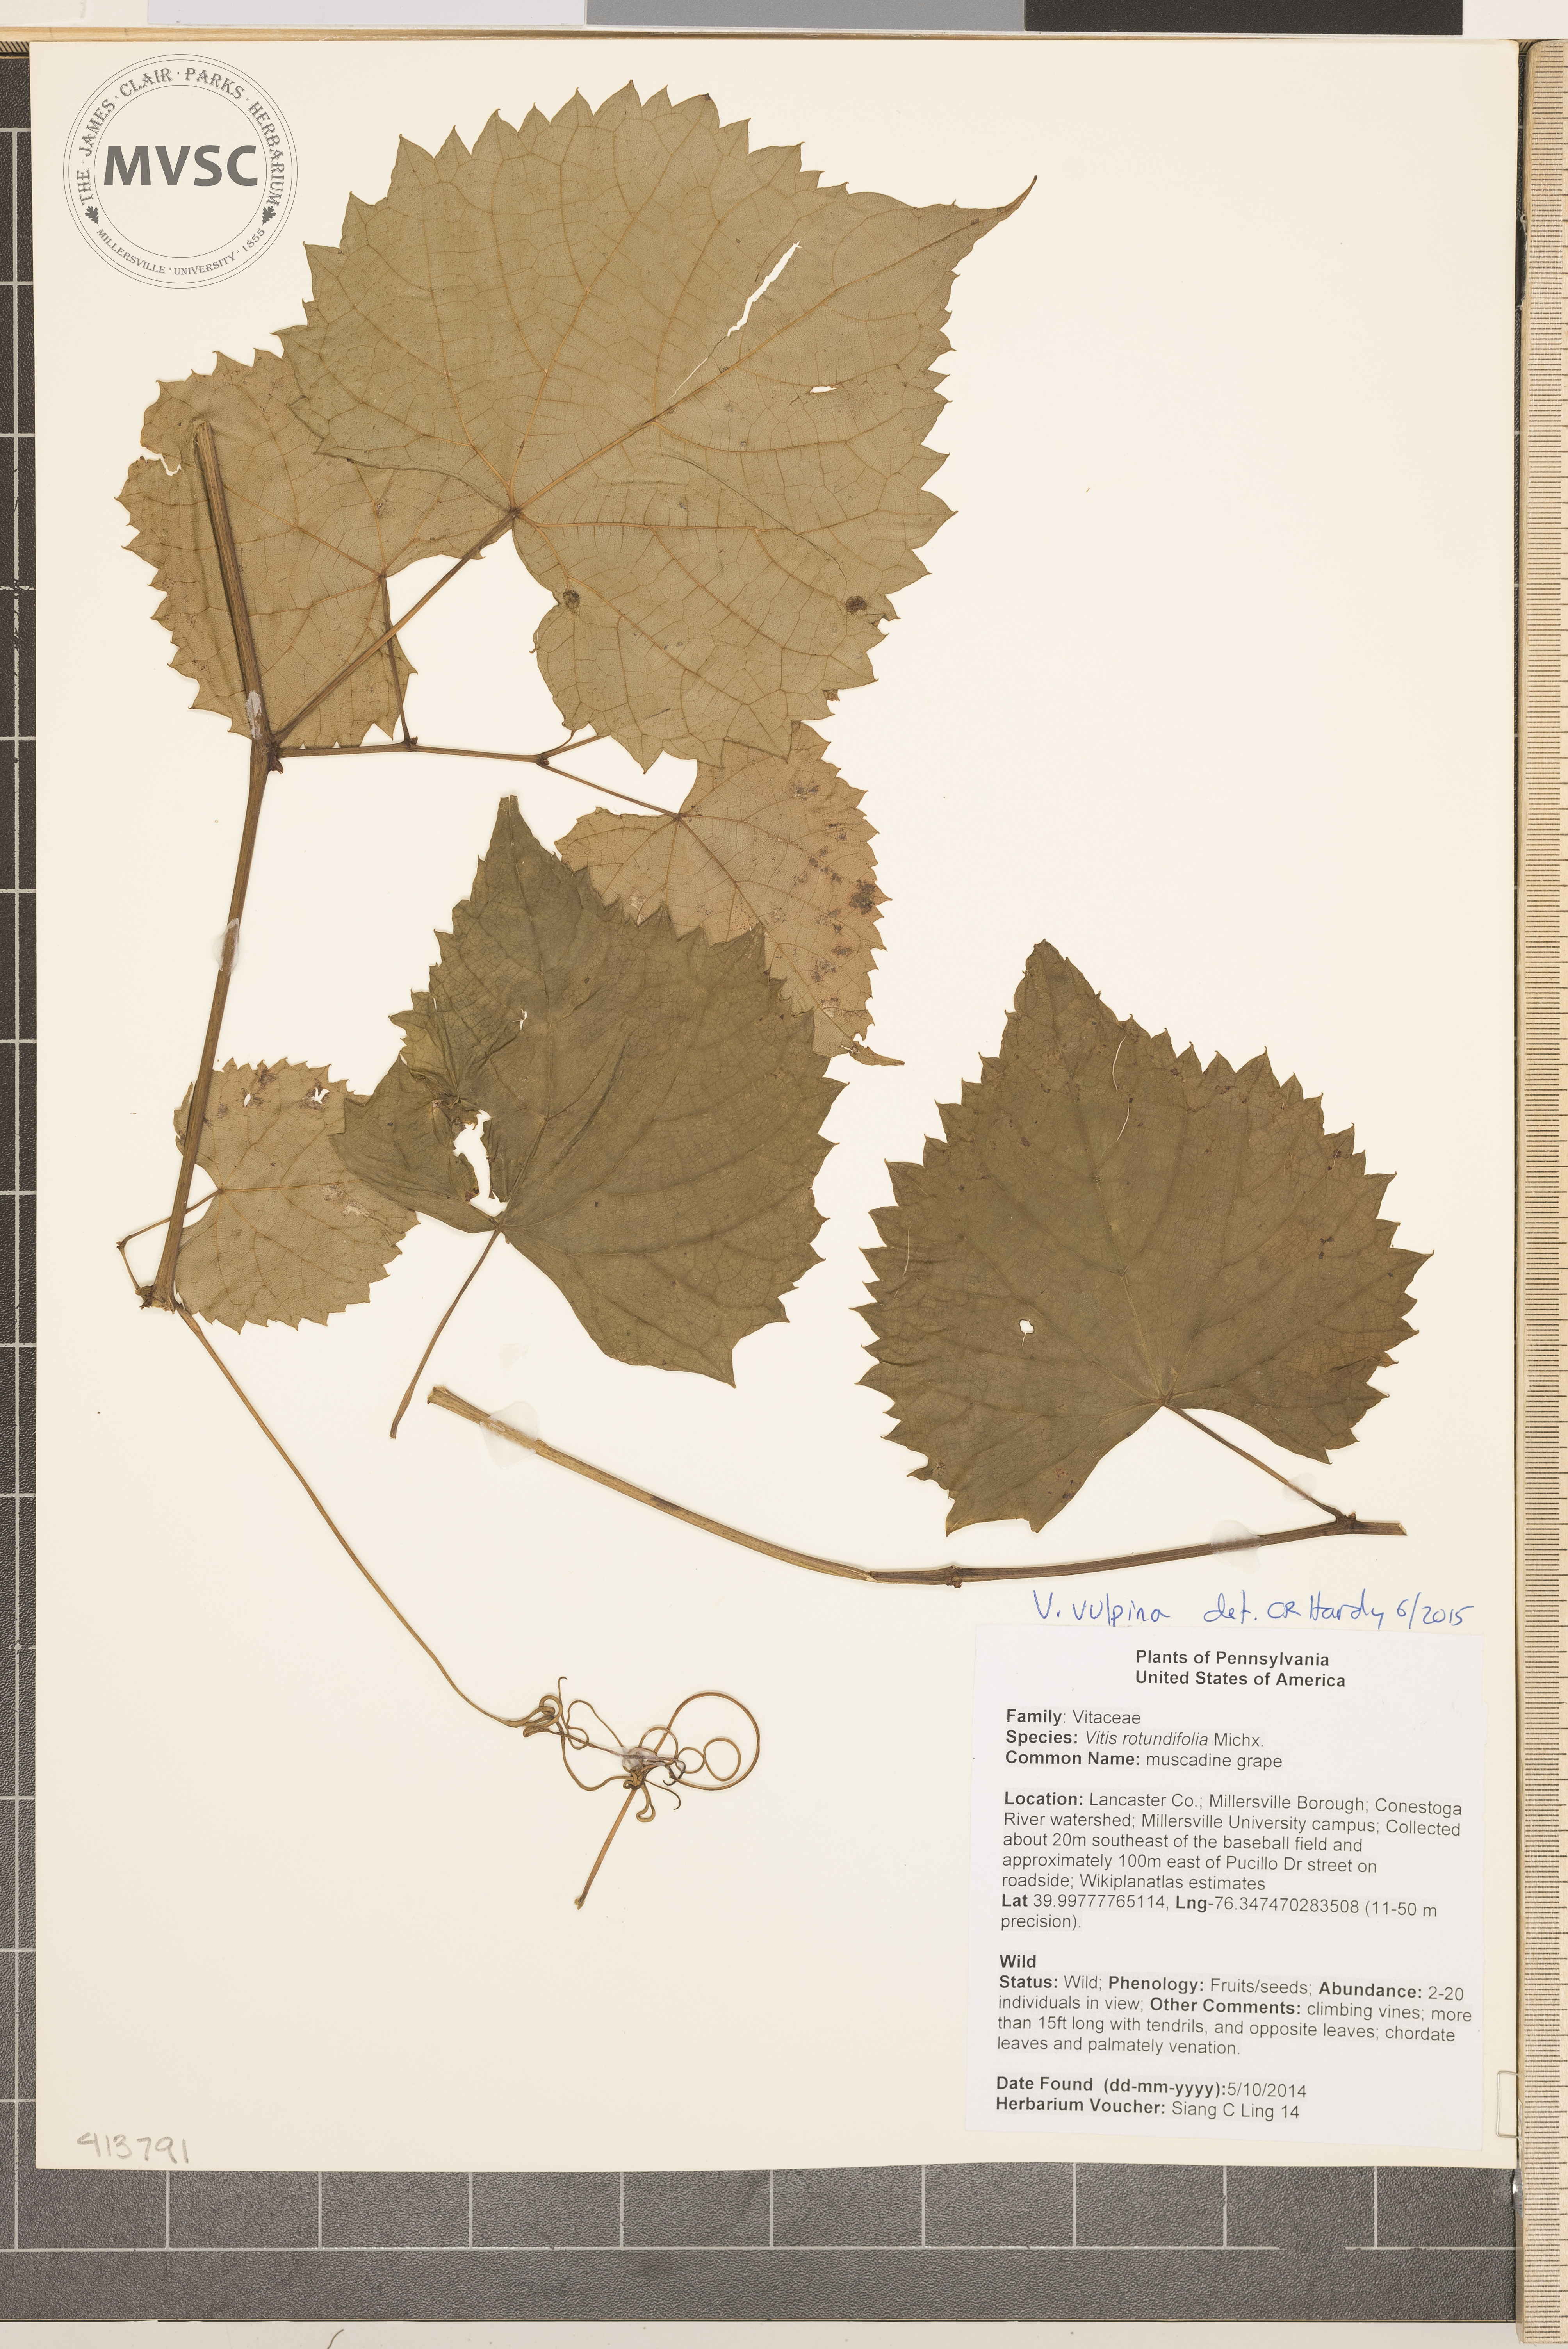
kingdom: Plantae
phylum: Tracheophyta
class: Magnoliopsida
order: Vitales
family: Vitaceae
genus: Vitis
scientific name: Vitis vulpina
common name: frost grape
